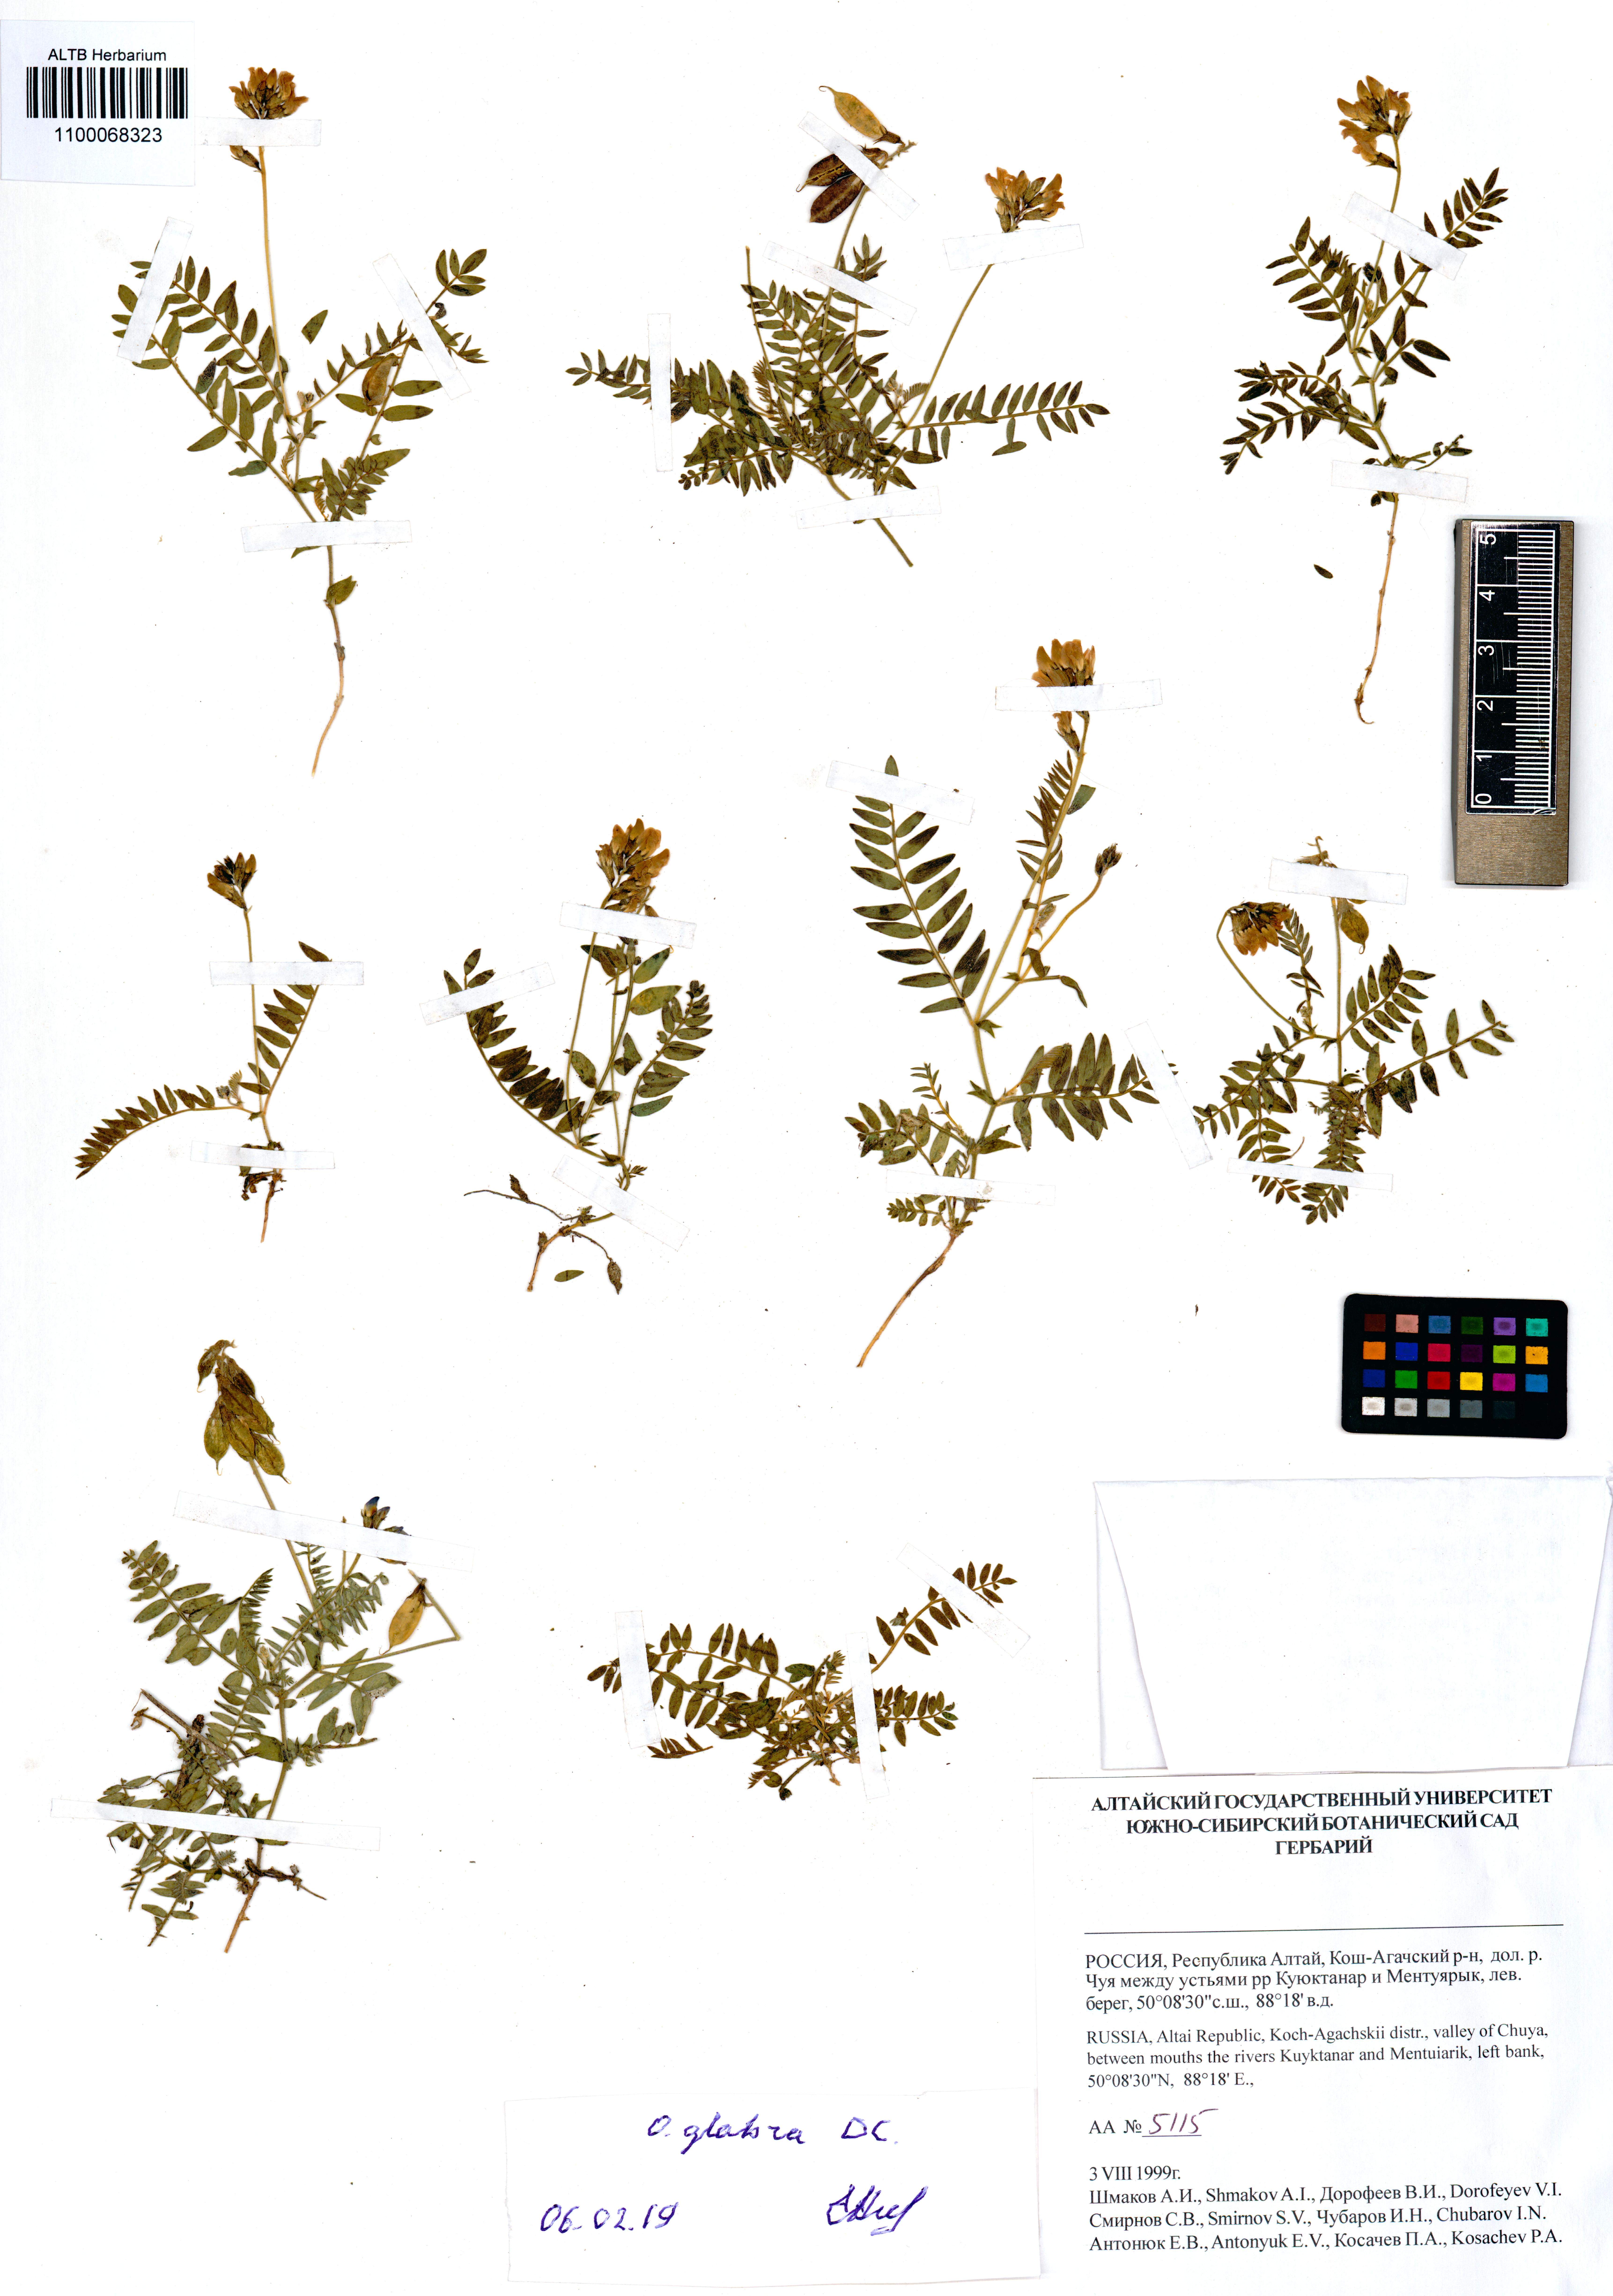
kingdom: Plantae
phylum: Tracheophyta
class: Magnoliopsida
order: Fabales
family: Fabaceae
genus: Oxytropis
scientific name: Oxytropis glabra
